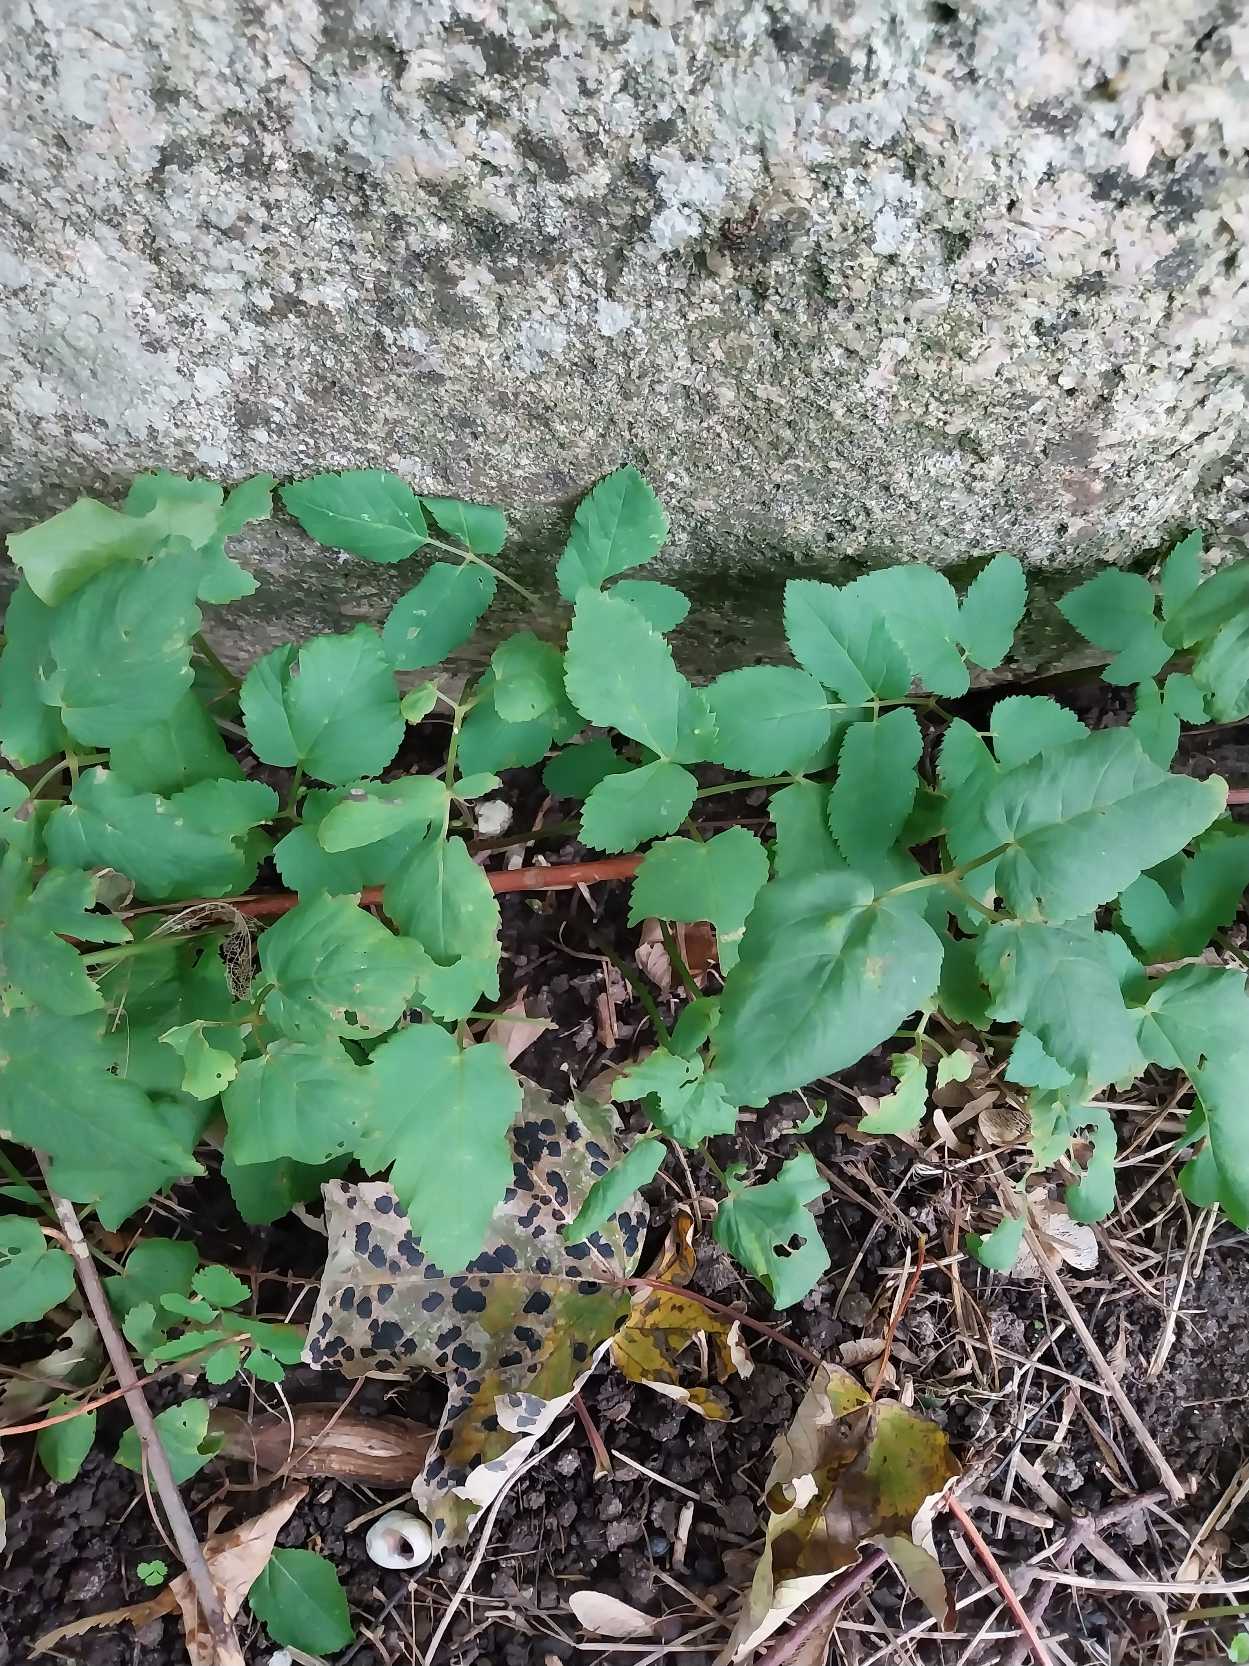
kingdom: Plantae
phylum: Tracheophyta
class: Magnoliopsida
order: Apiales
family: Apiaceae
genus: Aegopodium
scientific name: Aegopodium podagraria
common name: Skvalderkål
